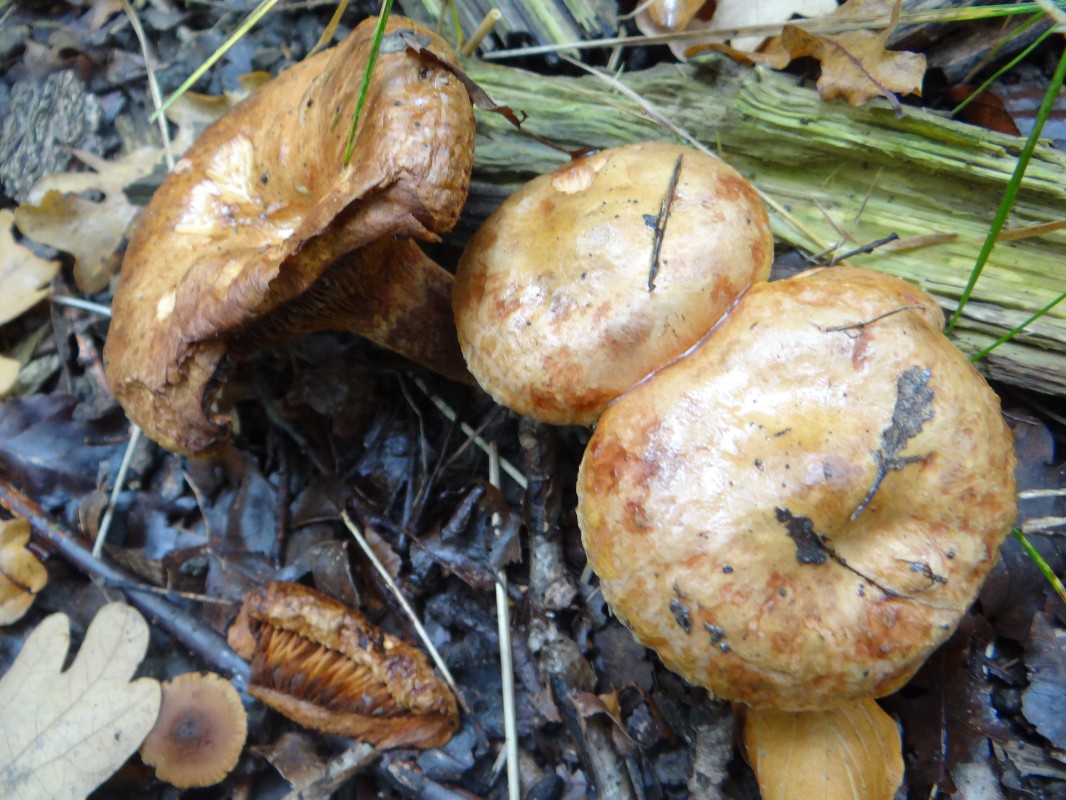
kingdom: Fungi
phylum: Basidiomycota
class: Agaricomycetes
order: Boletales
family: Paxillaceae
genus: Paxillus
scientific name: Paxillus involutus
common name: almindelig netbladhat
